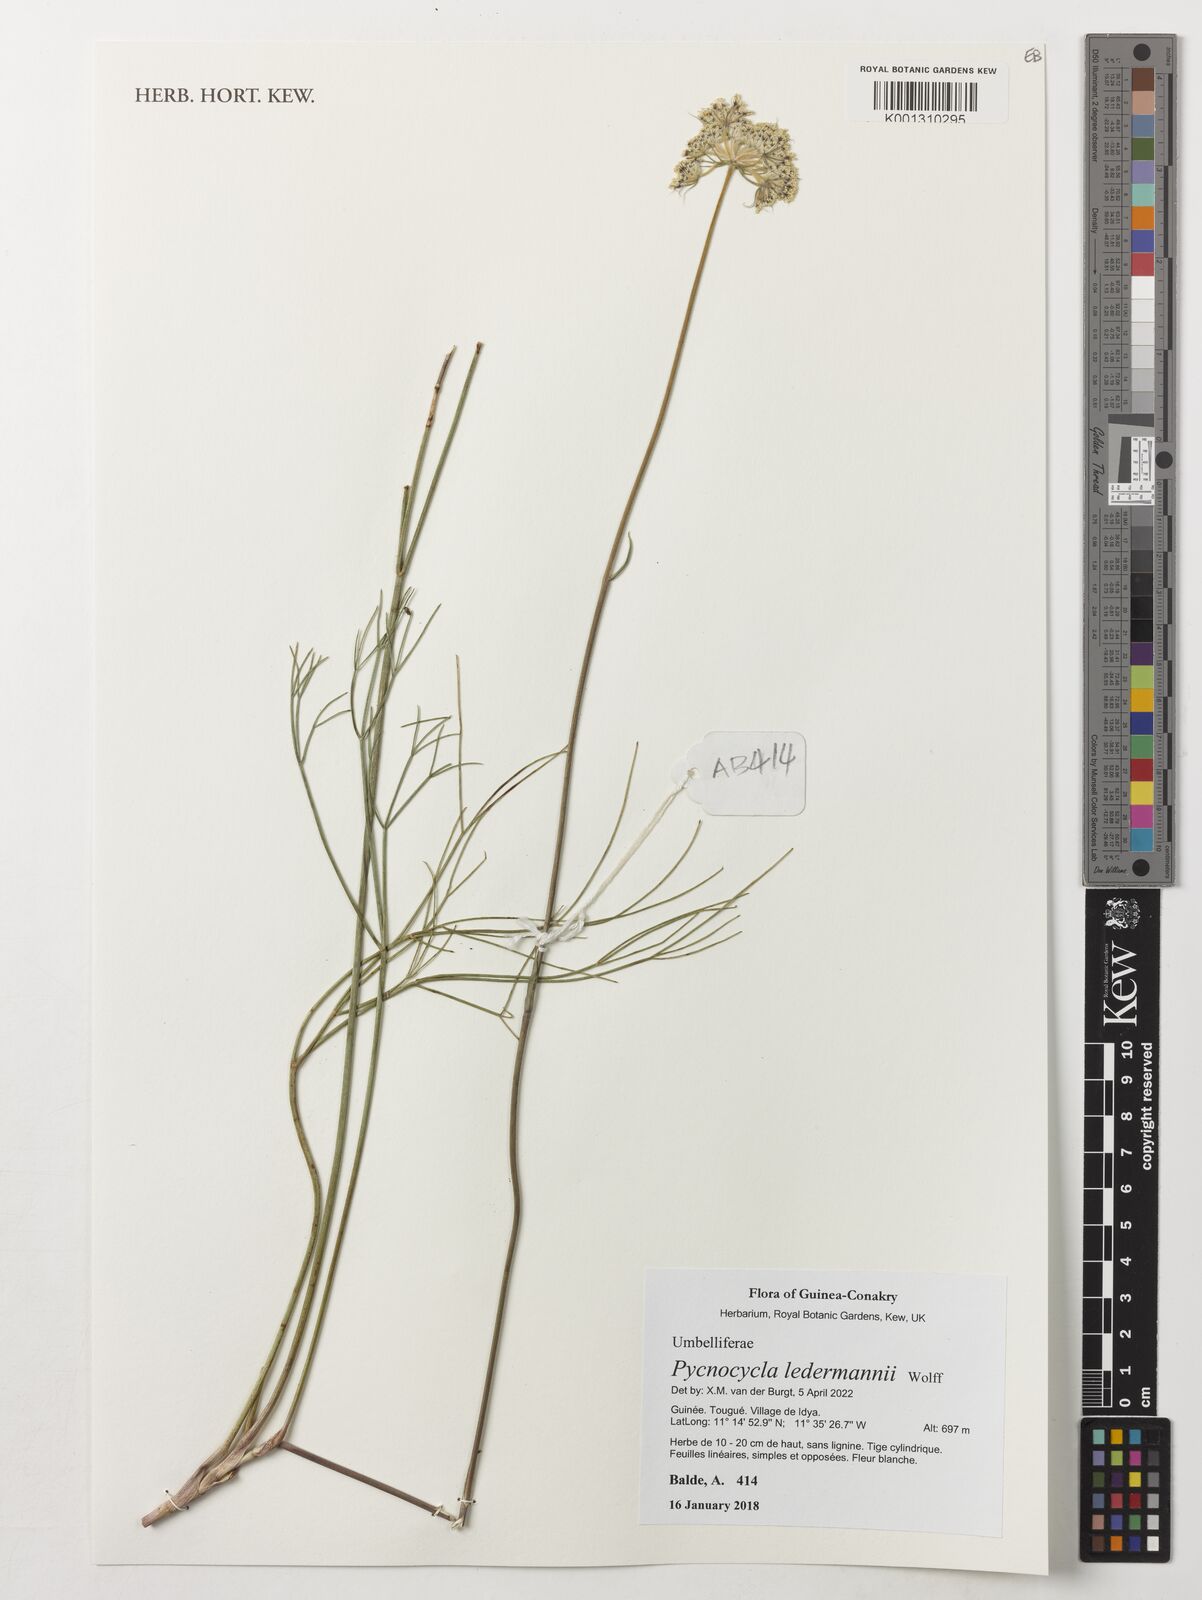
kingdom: Plantae
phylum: Tracheophyta
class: Magnoliopsida
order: Apiales
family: Apiaceae
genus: Pycnocycla
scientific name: Pycnocycla ledermannii
